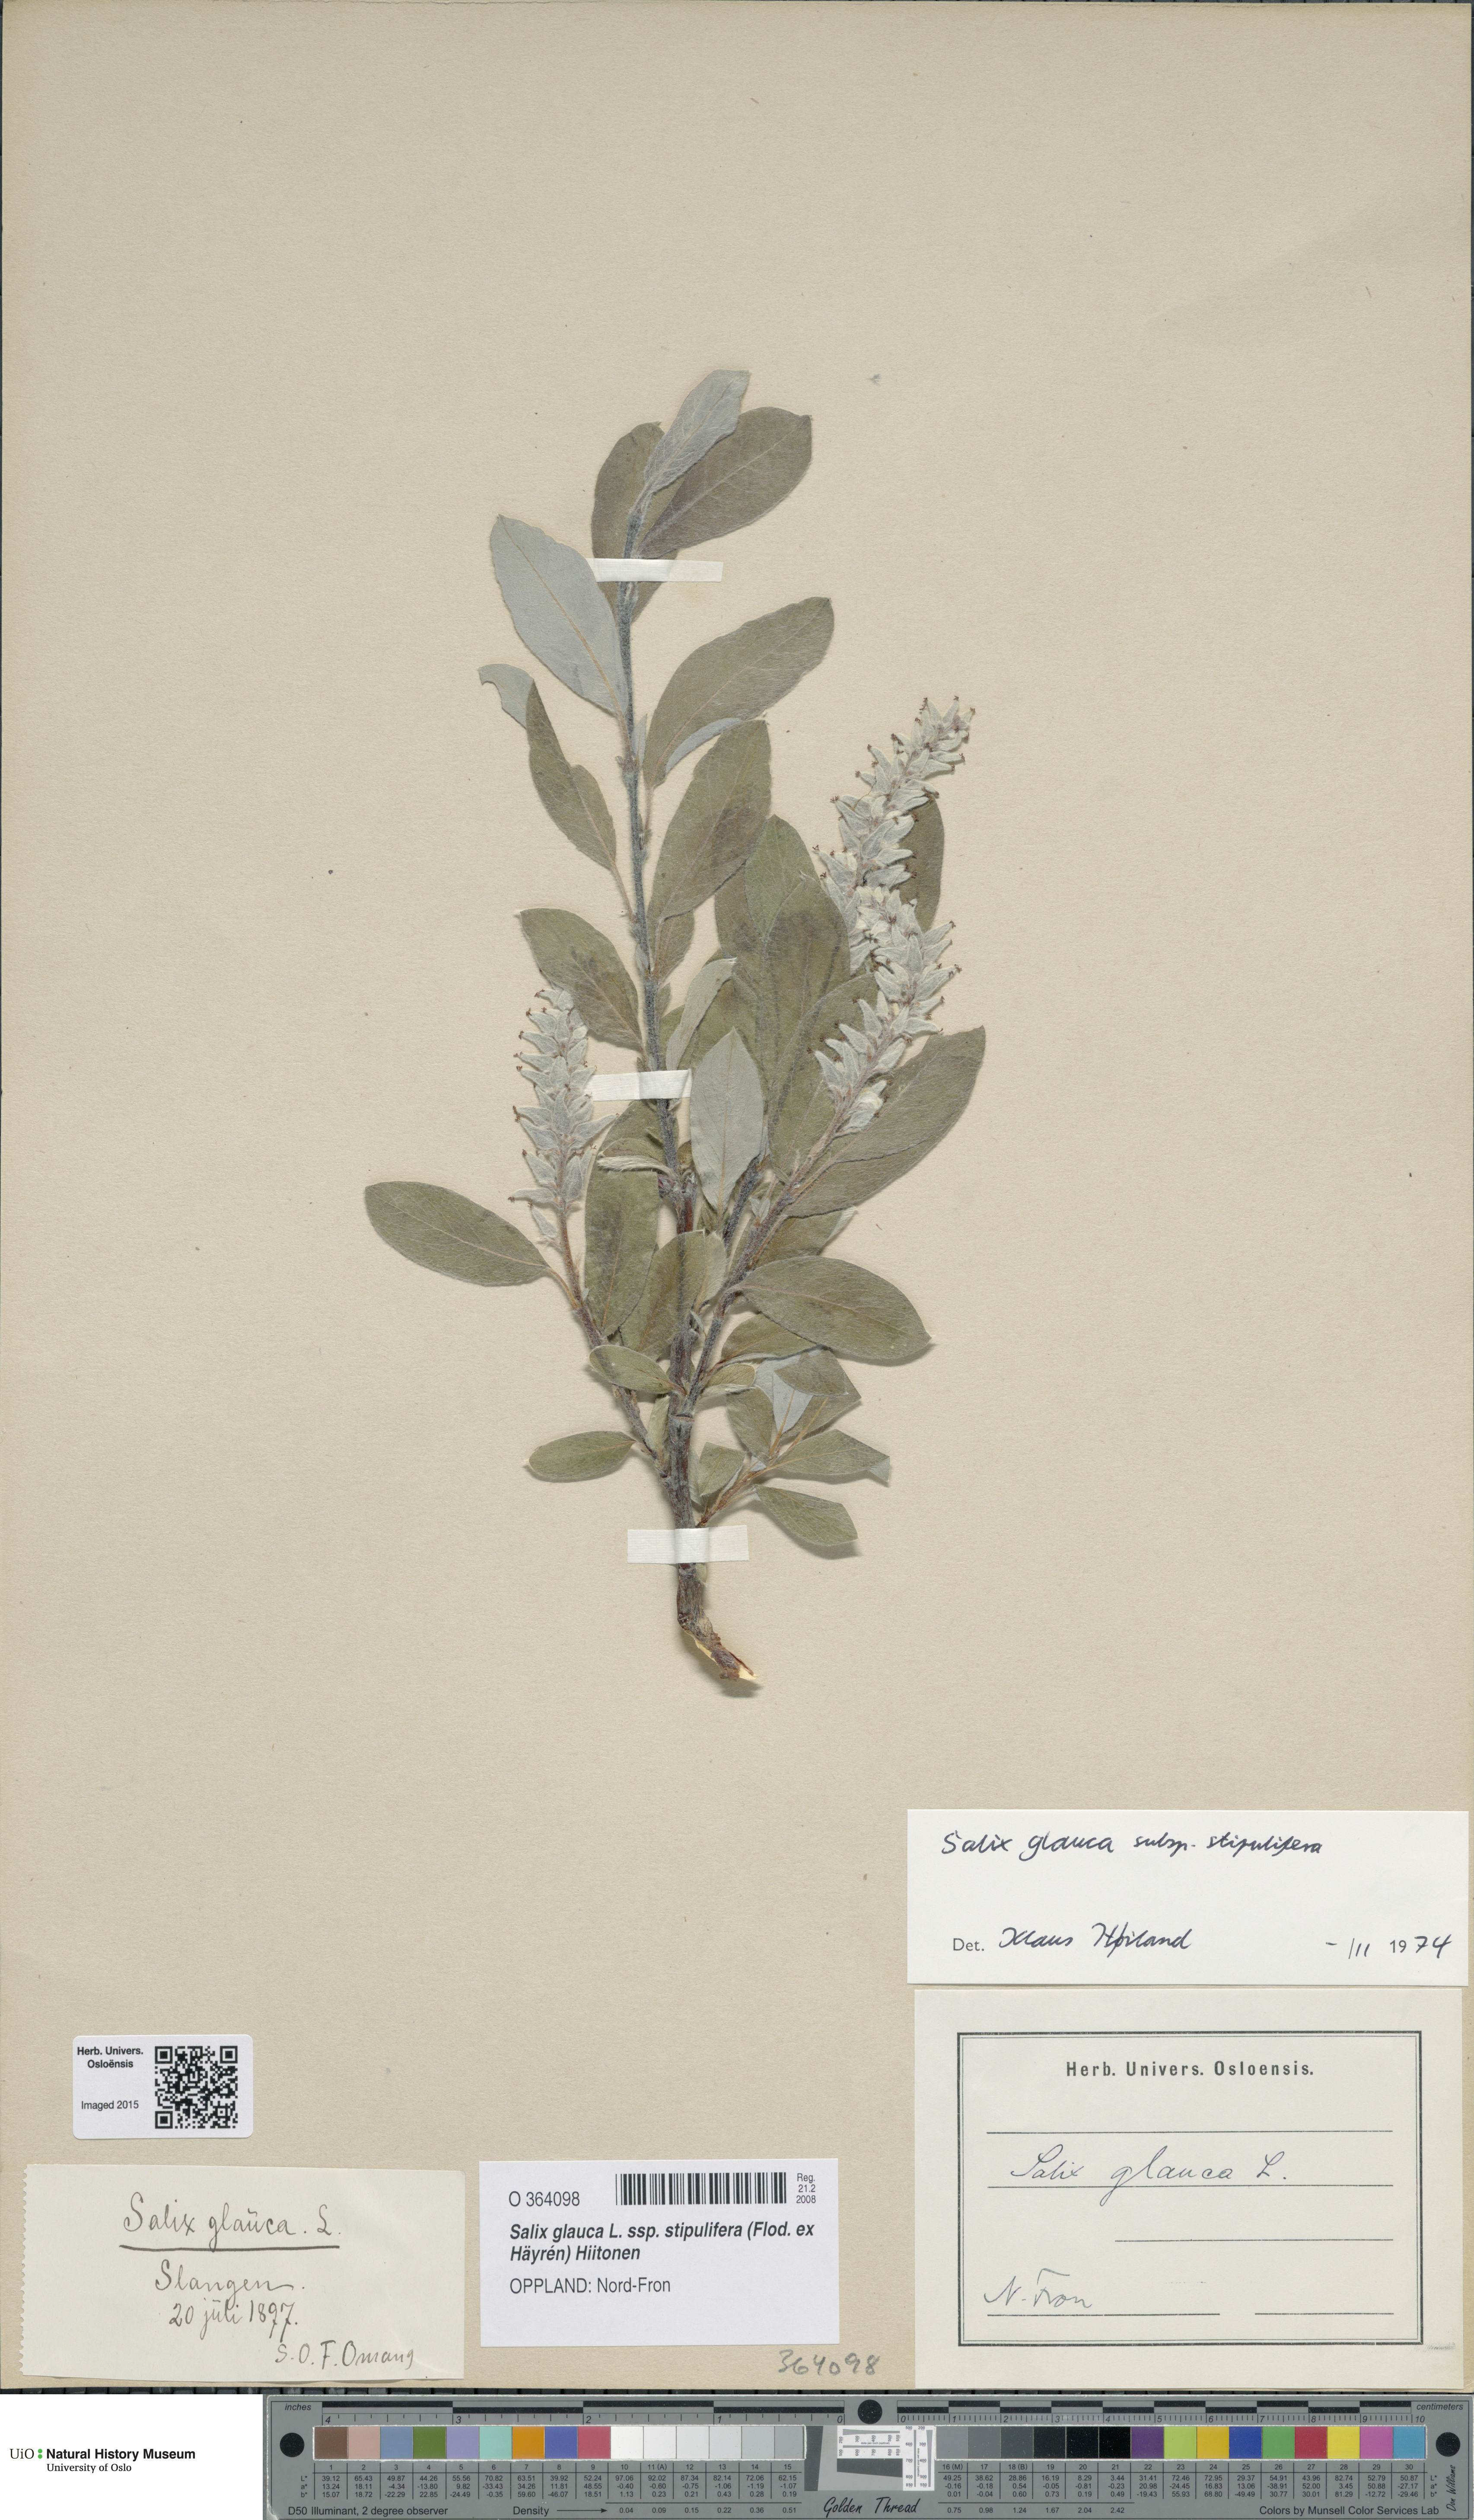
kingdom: Plantae
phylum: Tracheophyta
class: Magnoliopsida
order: Malpighiales
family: Salicaceae
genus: Salix
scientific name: Salix glauca
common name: Glaucous willow
